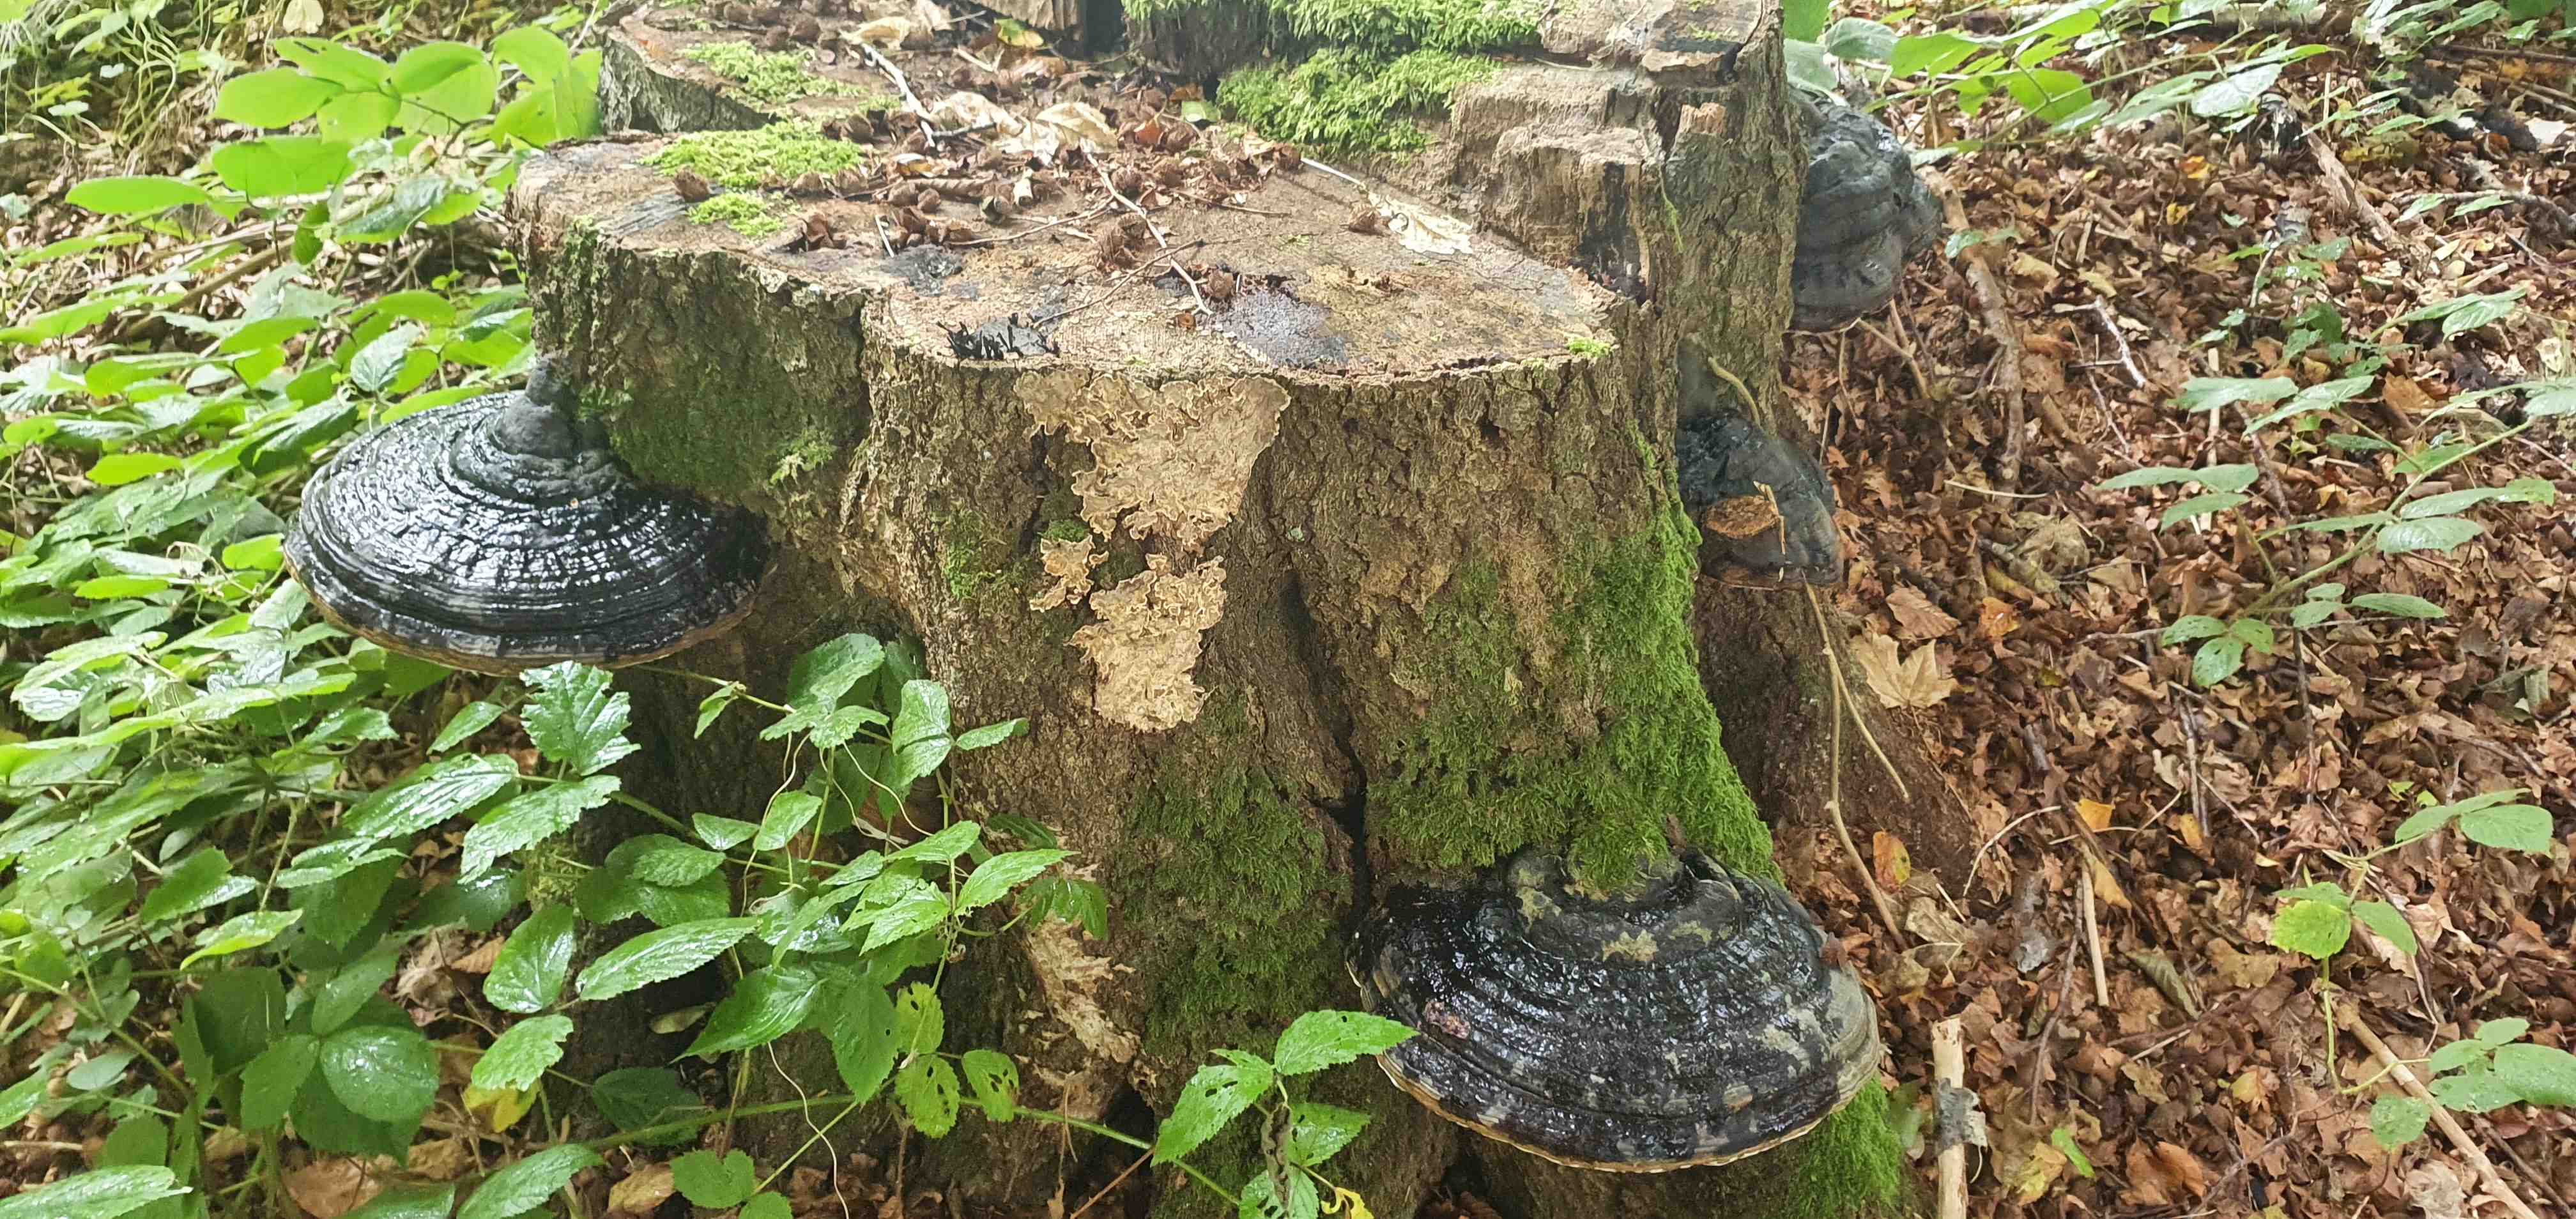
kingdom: Fungi
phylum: Basidiomycota
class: Agaricomycetes
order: Polyporales
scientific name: Polyporales
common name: poresvampordenen
